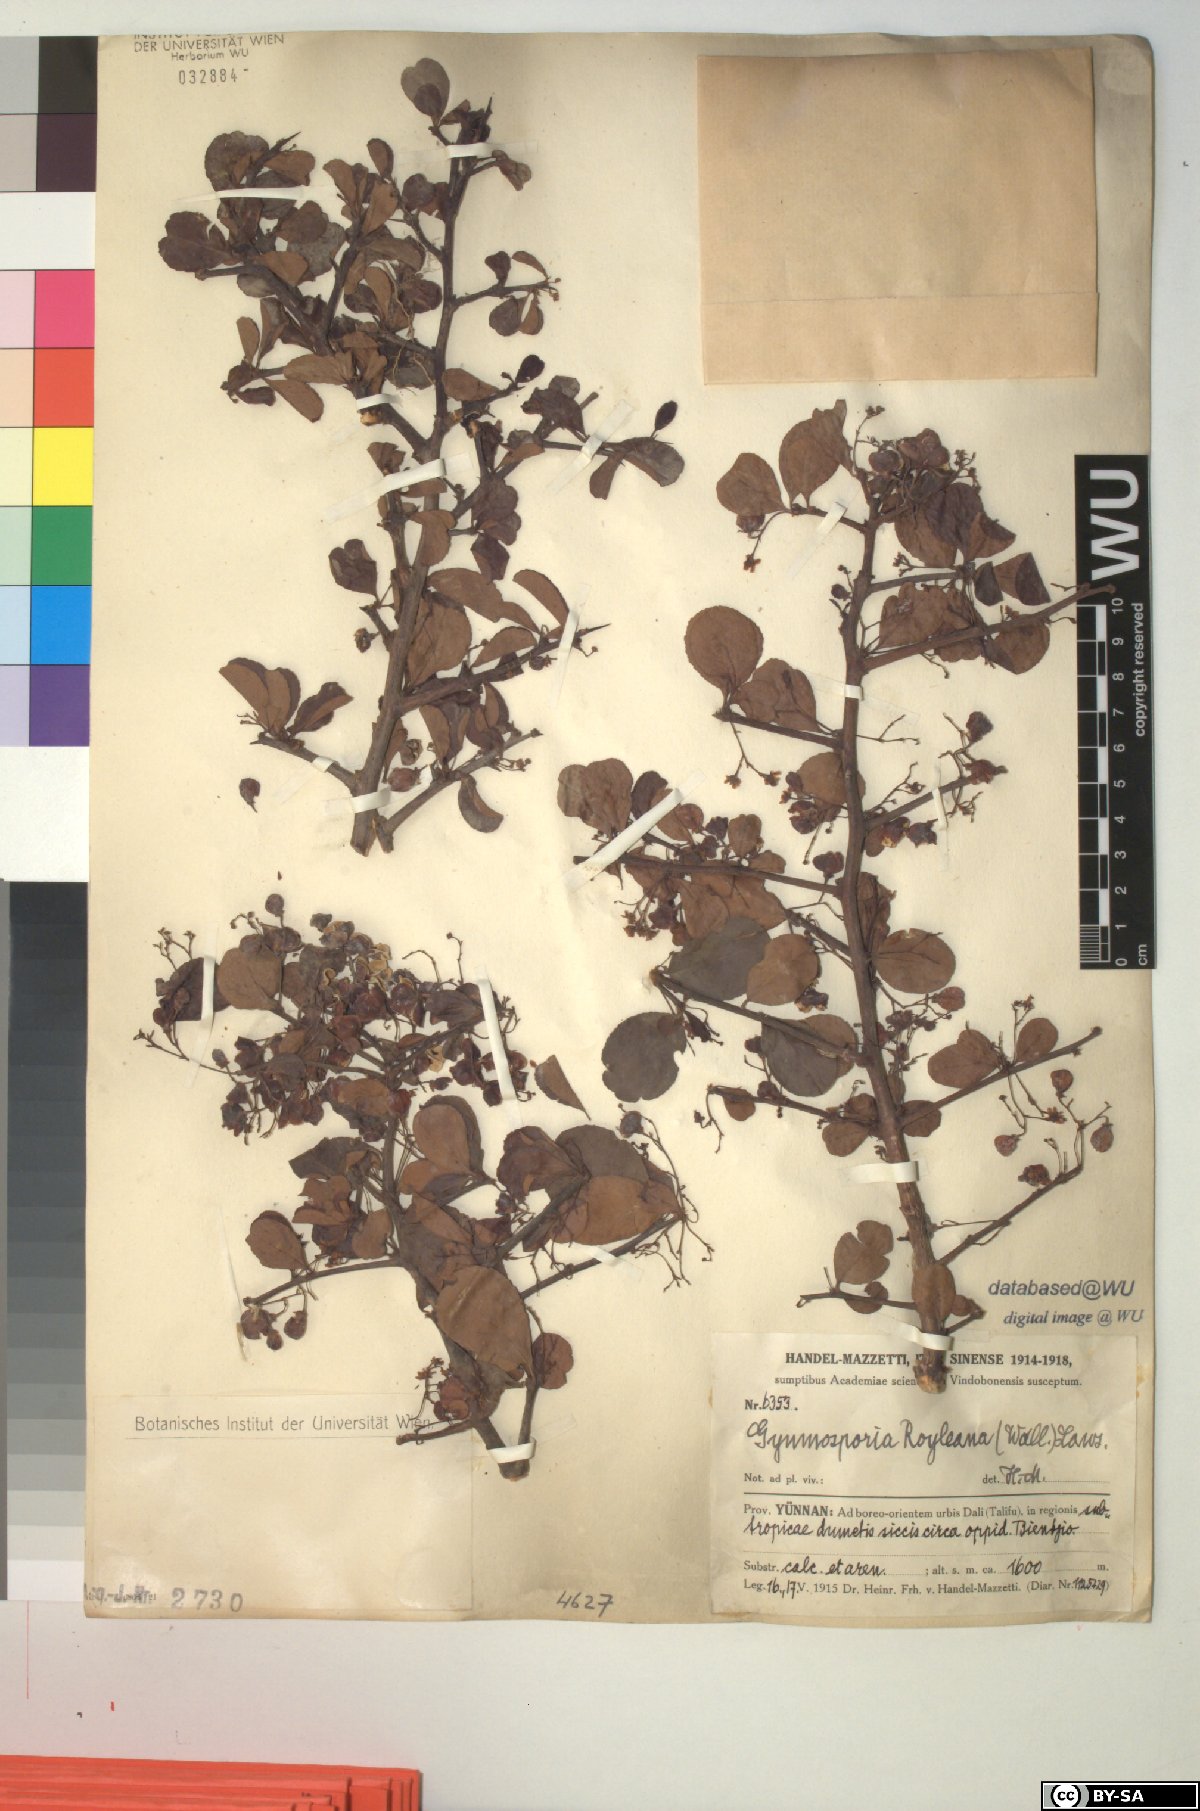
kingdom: Plantae
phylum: Tracheophyta
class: Magnoliopsida
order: Celastrales
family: Celastraceae
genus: Gymnosporia
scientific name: Gymnosporia royleana
